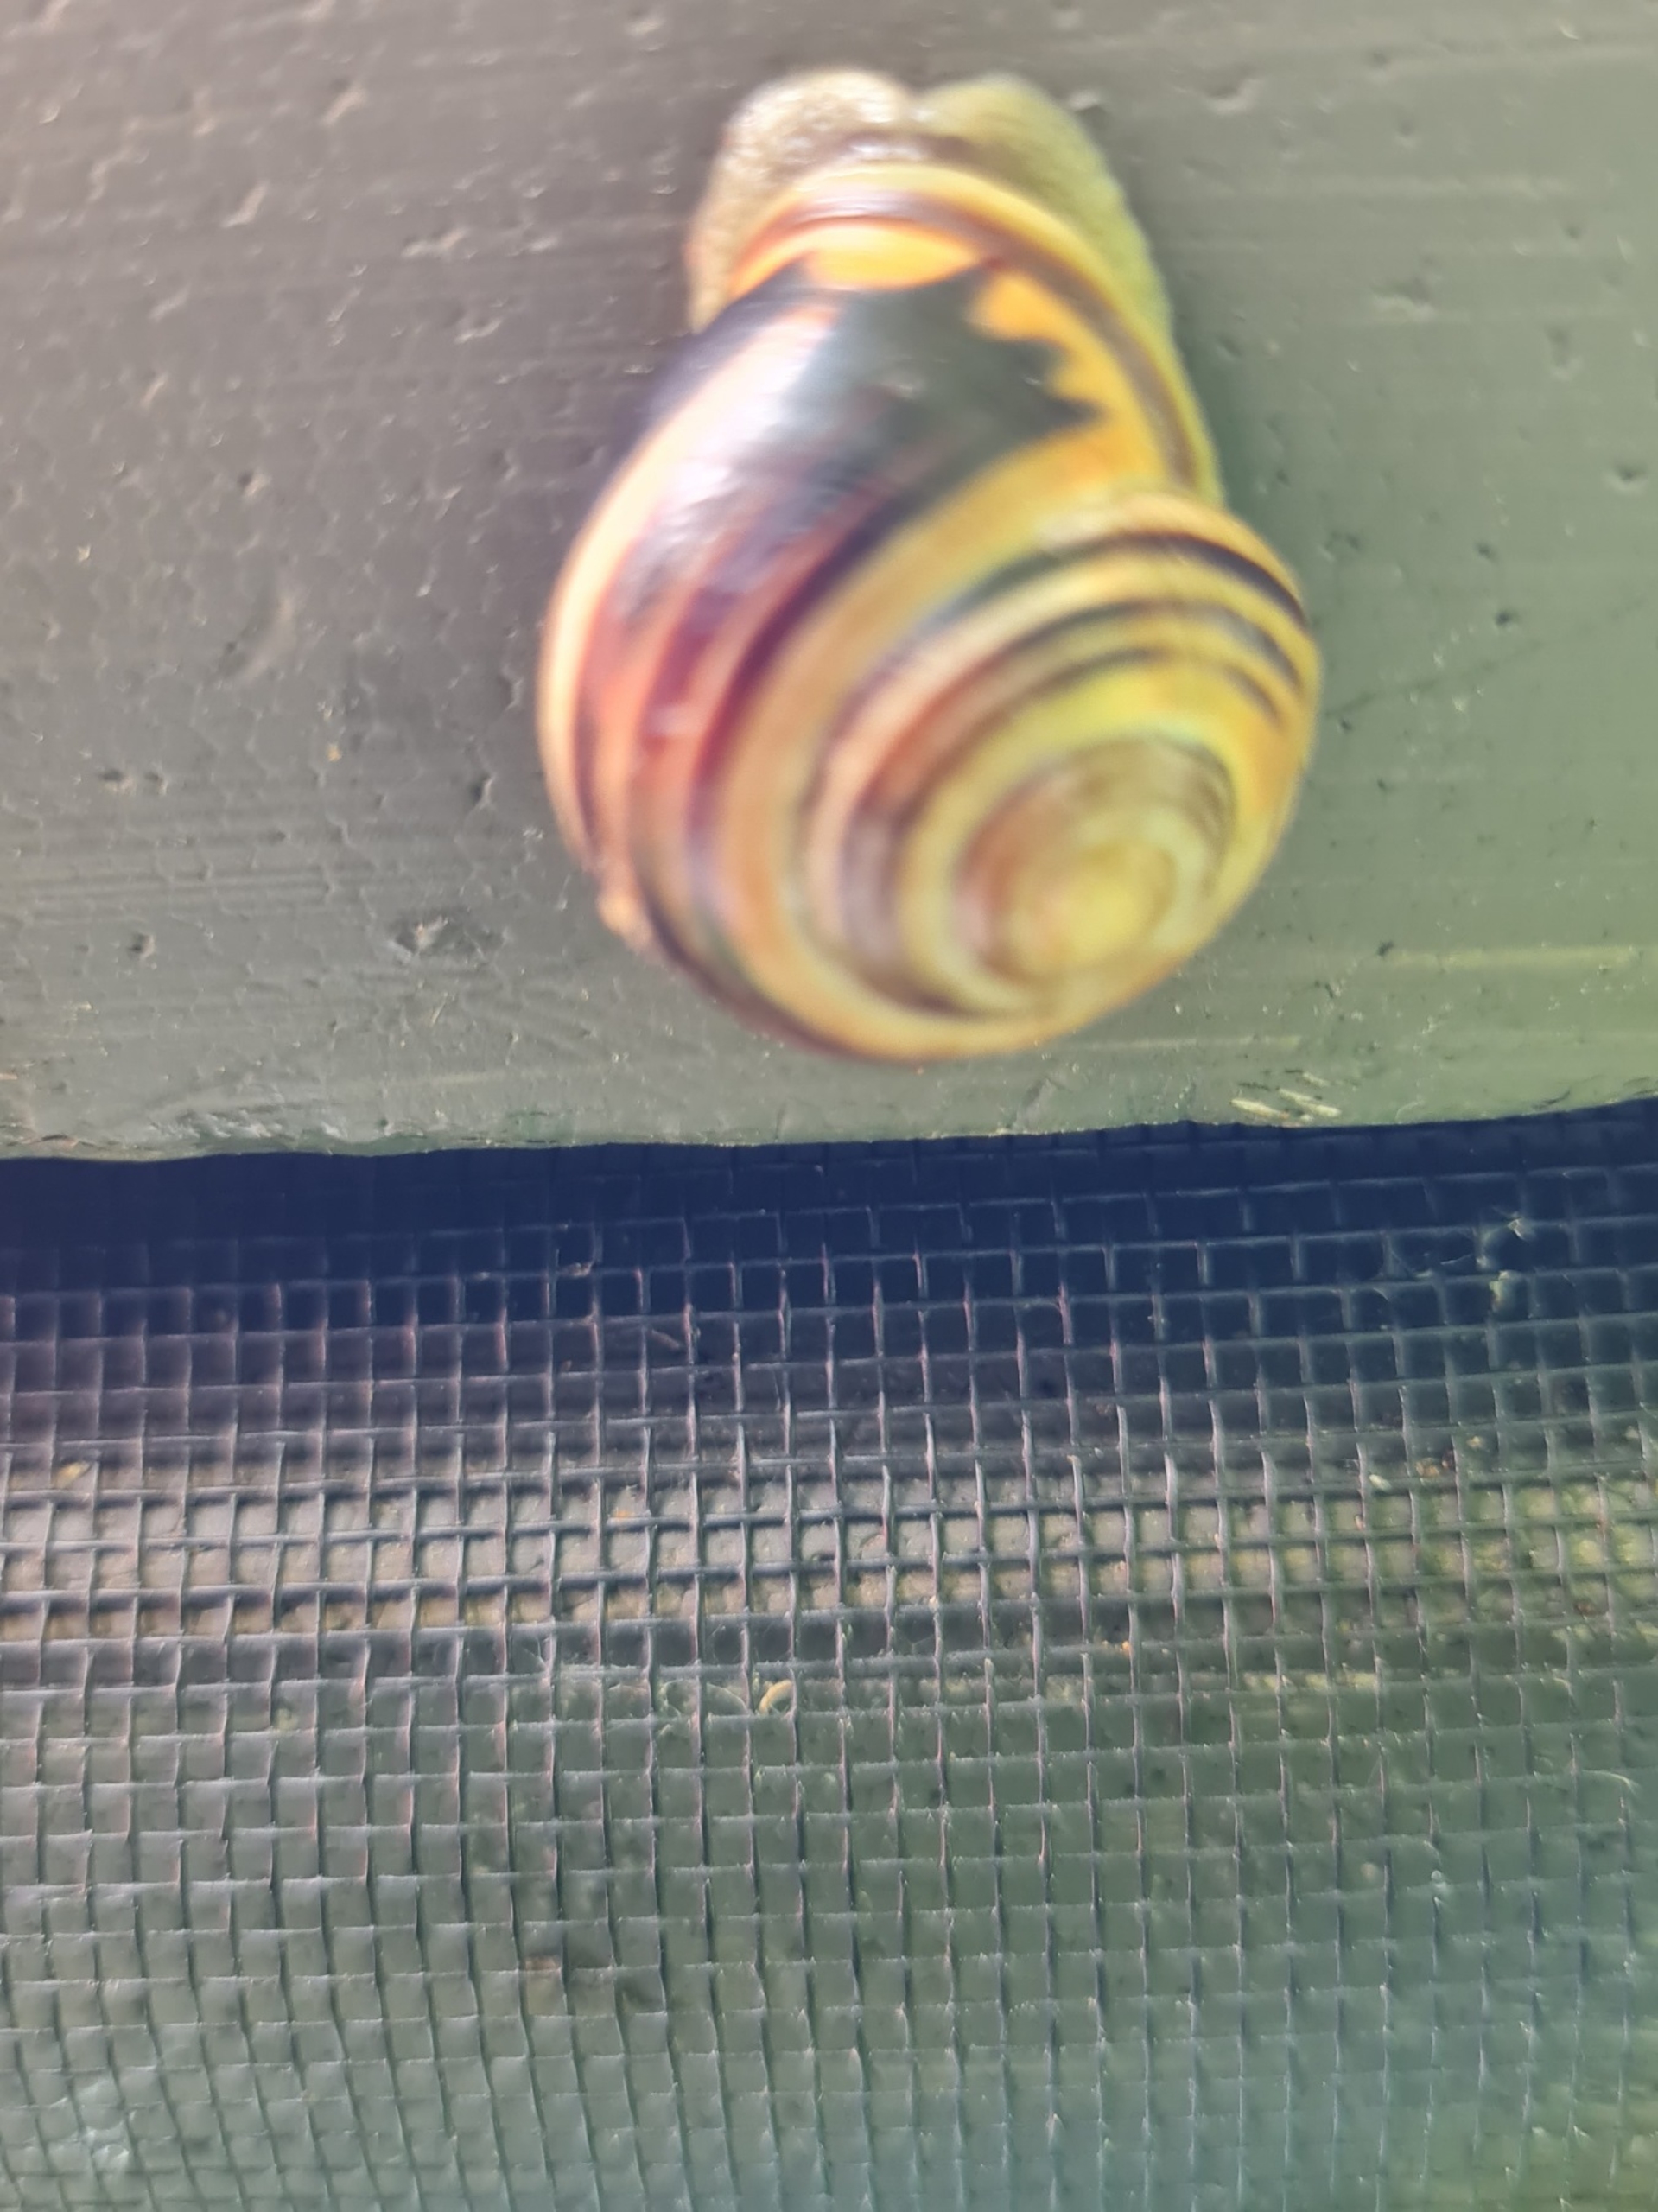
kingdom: Animalia
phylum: Mollusca
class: Gastropoda
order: Stylommatophora
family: Helicidae
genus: Cepaea
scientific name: Cepaea nemoralis
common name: Lundsnegl
